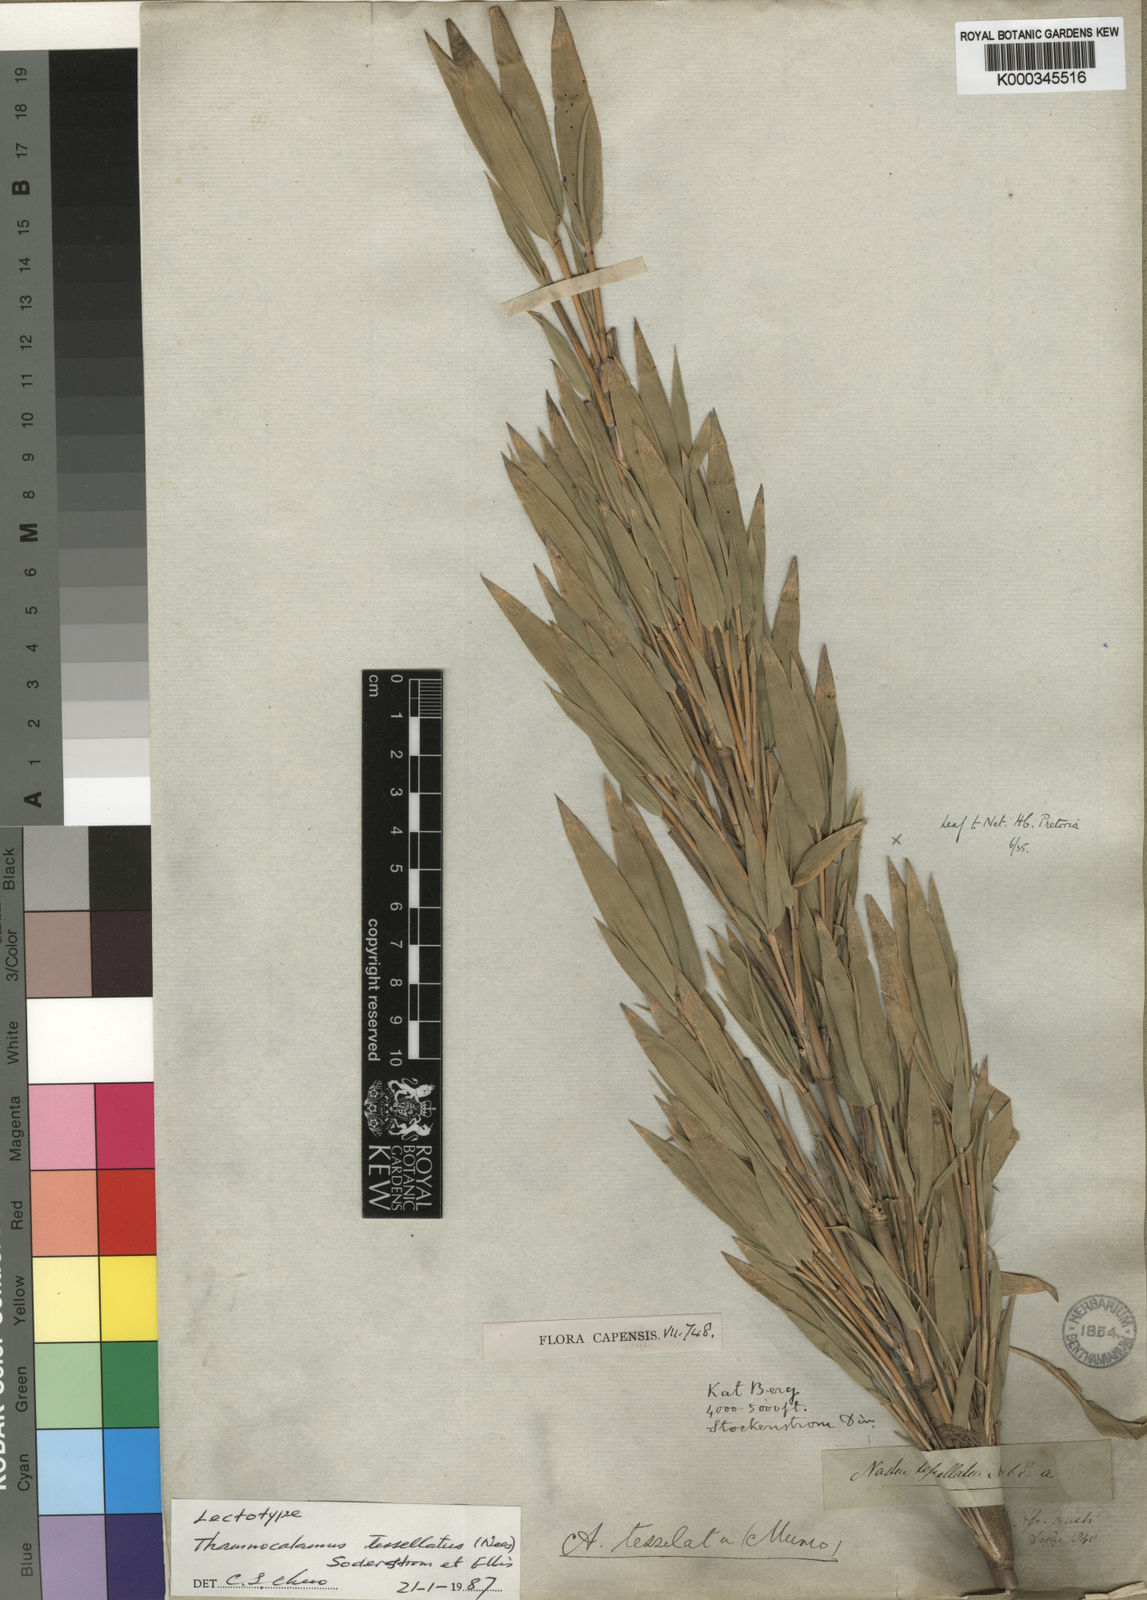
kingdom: Plantae
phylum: Tracheophyta
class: Liliopsida
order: Poales
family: Poaceae
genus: Bergbambos
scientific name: Bergbambos tessellata
